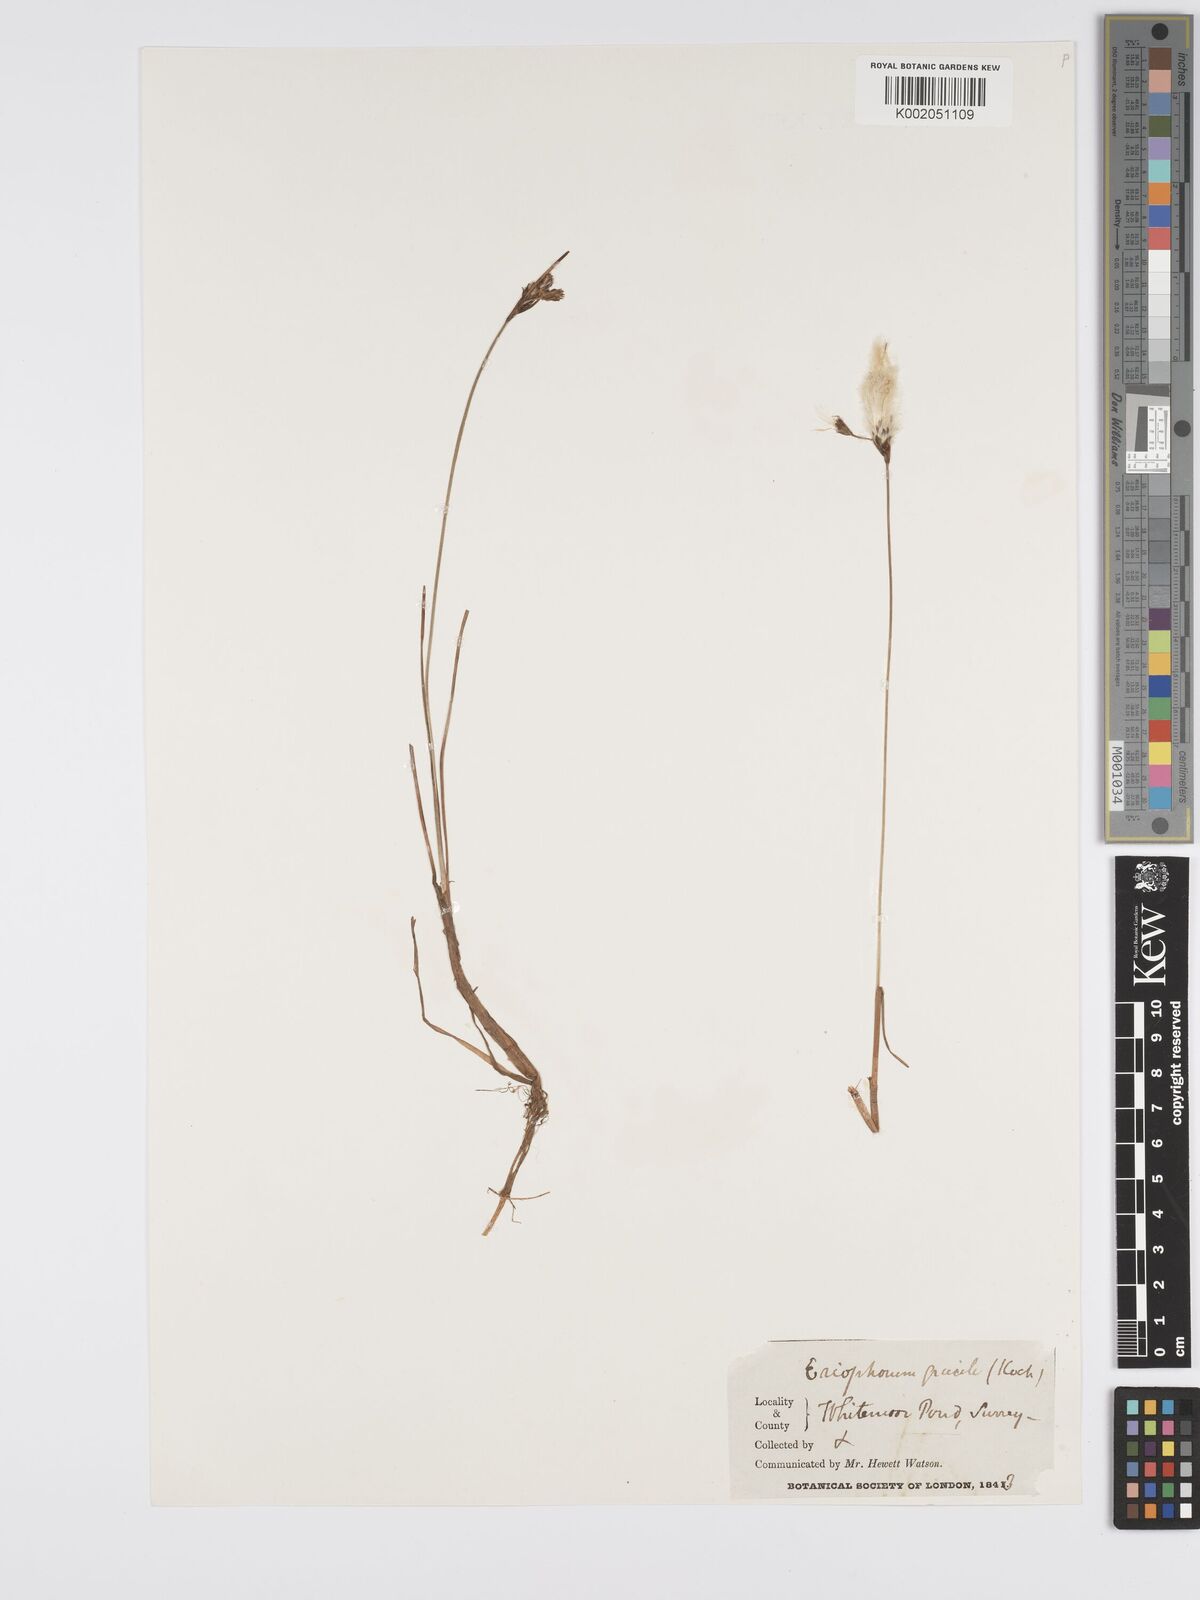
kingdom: Plantae
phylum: Tracheophyta
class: Liliopsida
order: Poales
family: Cyperaceae
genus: Eriophorum
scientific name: Eriophorum gracile
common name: Slender cottongrass
